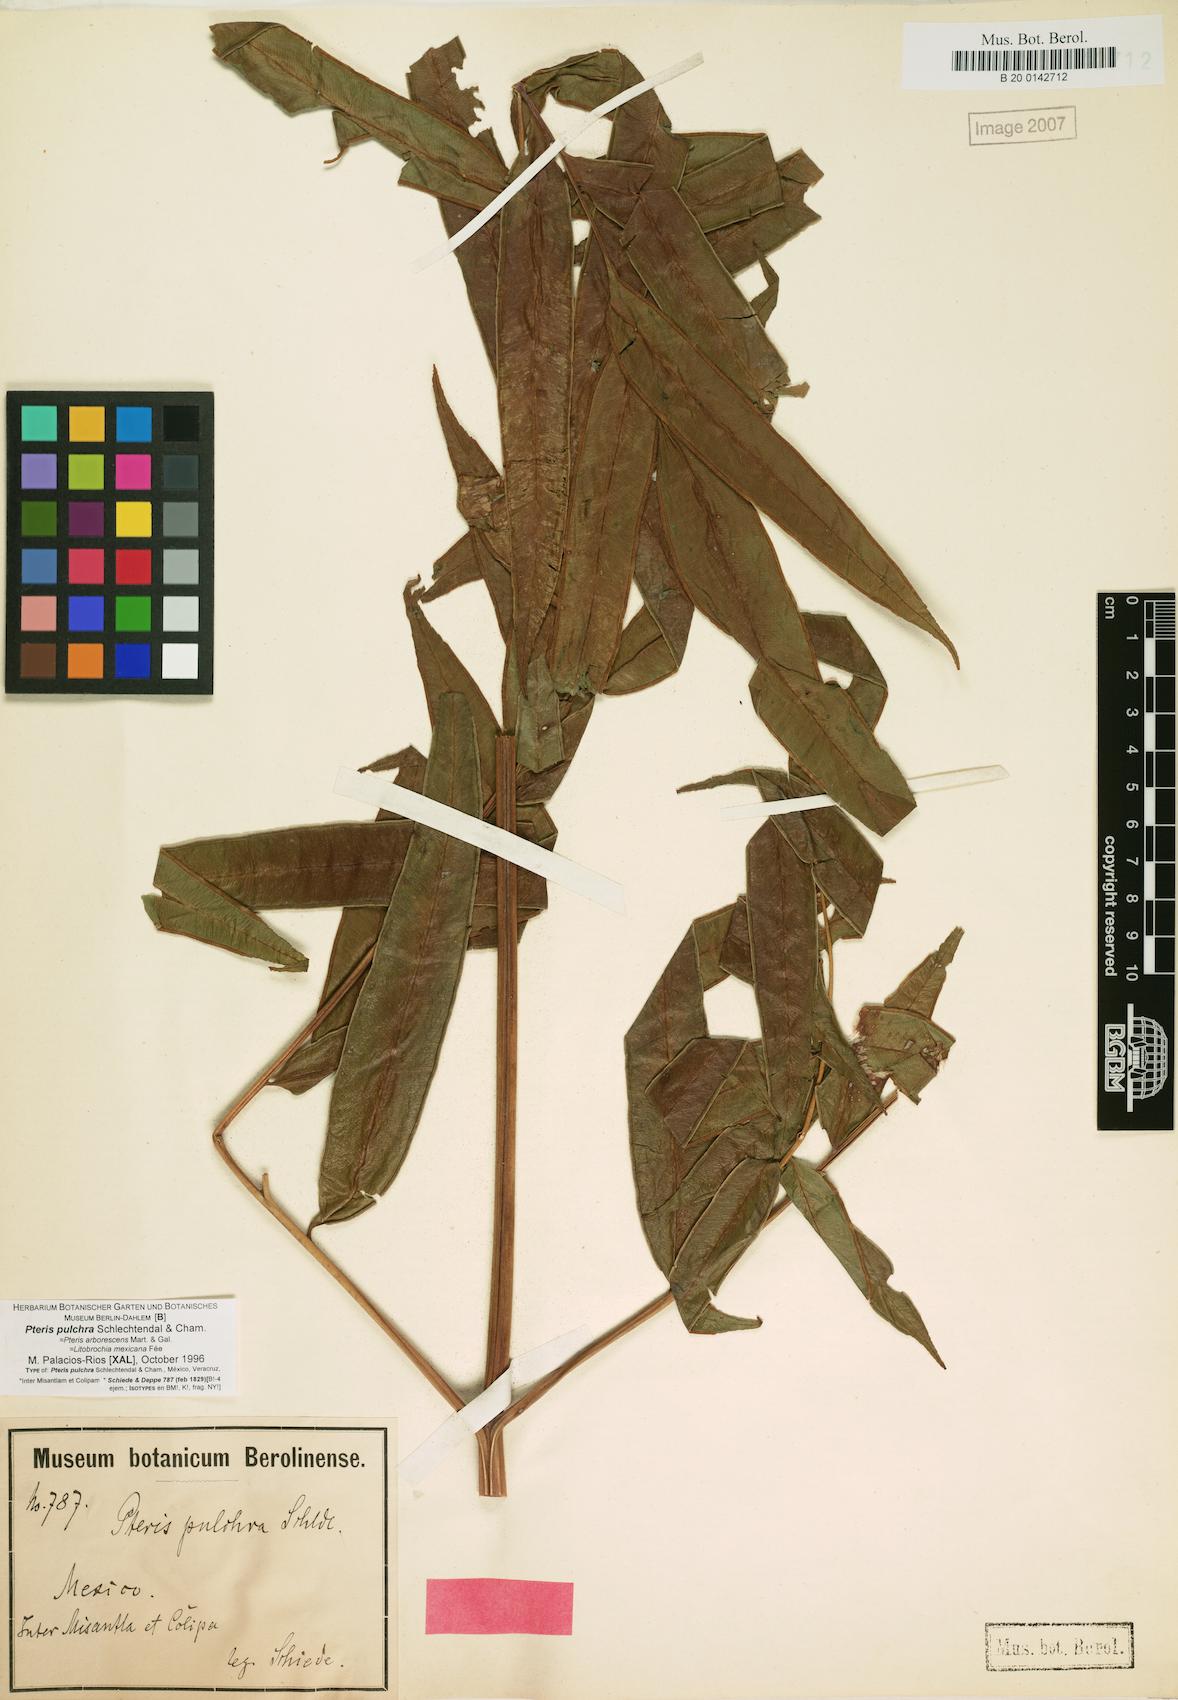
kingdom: Plantae
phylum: Tracheophyta
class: Polypodiopsida
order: Polypodiales
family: Pteridaceae
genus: Pteris
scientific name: Pteris pulchra
